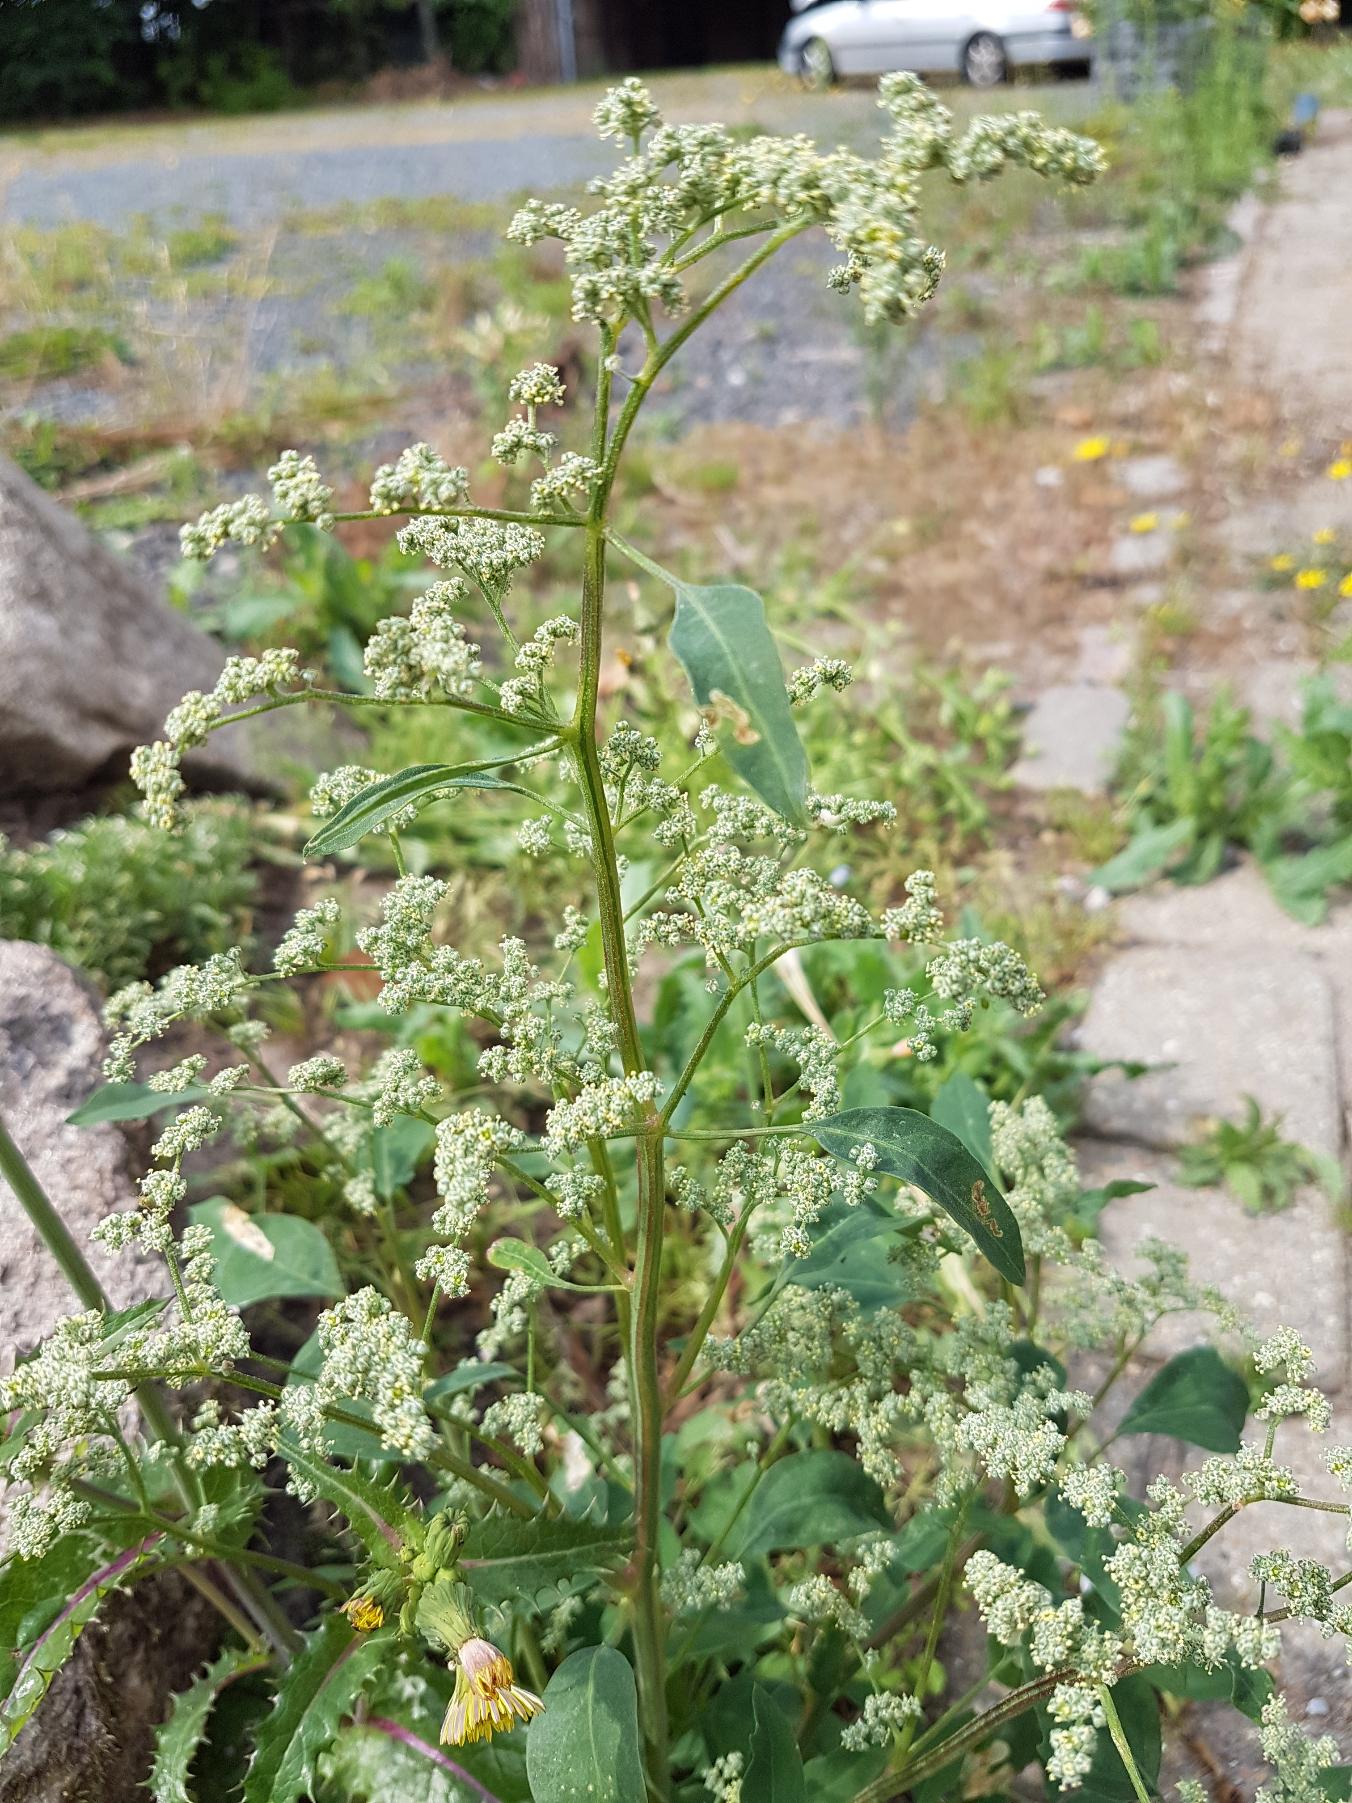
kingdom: Plantae
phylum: Tracheophyta
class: Magnoliopsida
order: Caryophyllales
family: Amaranthaceae
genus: Chenopodium
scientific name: Chenopodium pratericola
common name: Finbladet gåsefod
